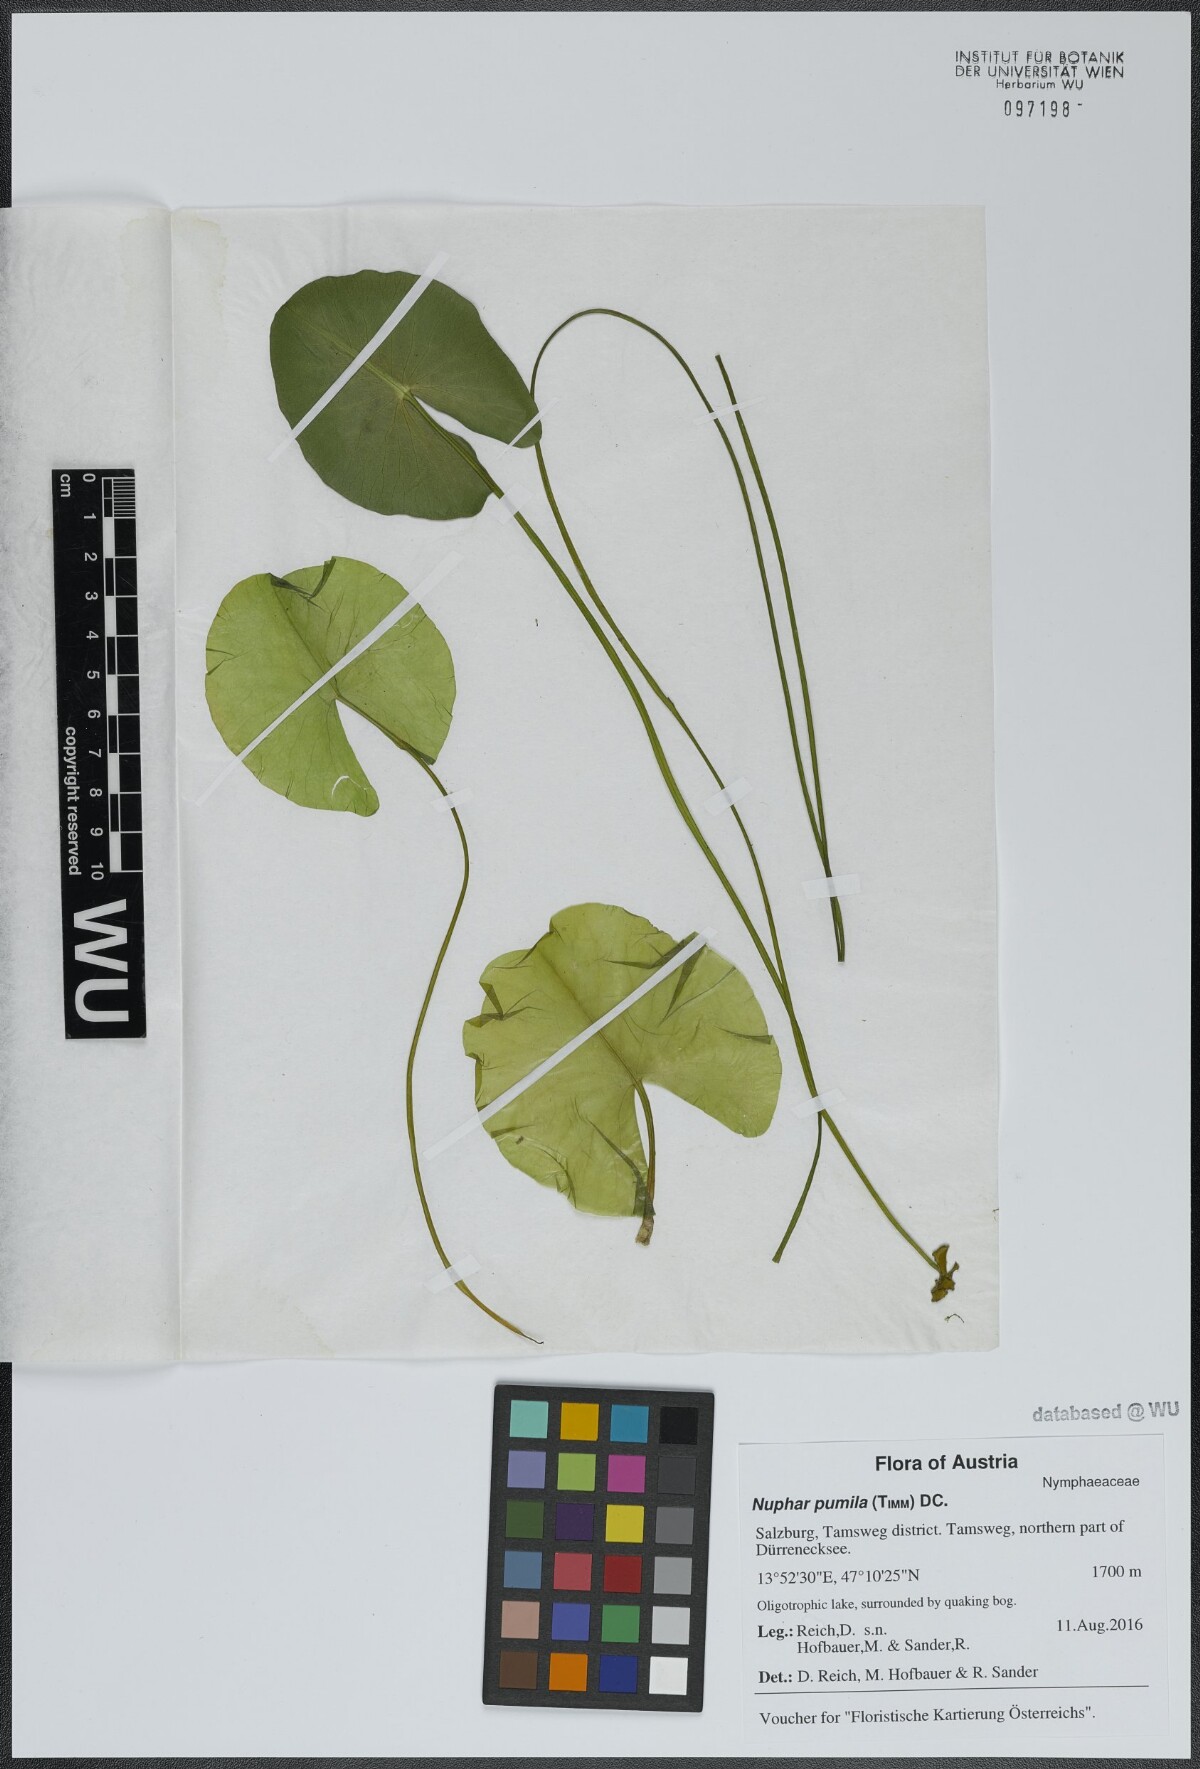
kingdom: Plantae
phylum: Tracheophyta
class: Magnoliopsida
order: Nymphaeales
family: Nymphaeaceae
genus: Nuphar
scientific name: Nuphar pumila
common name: Least water-lily
